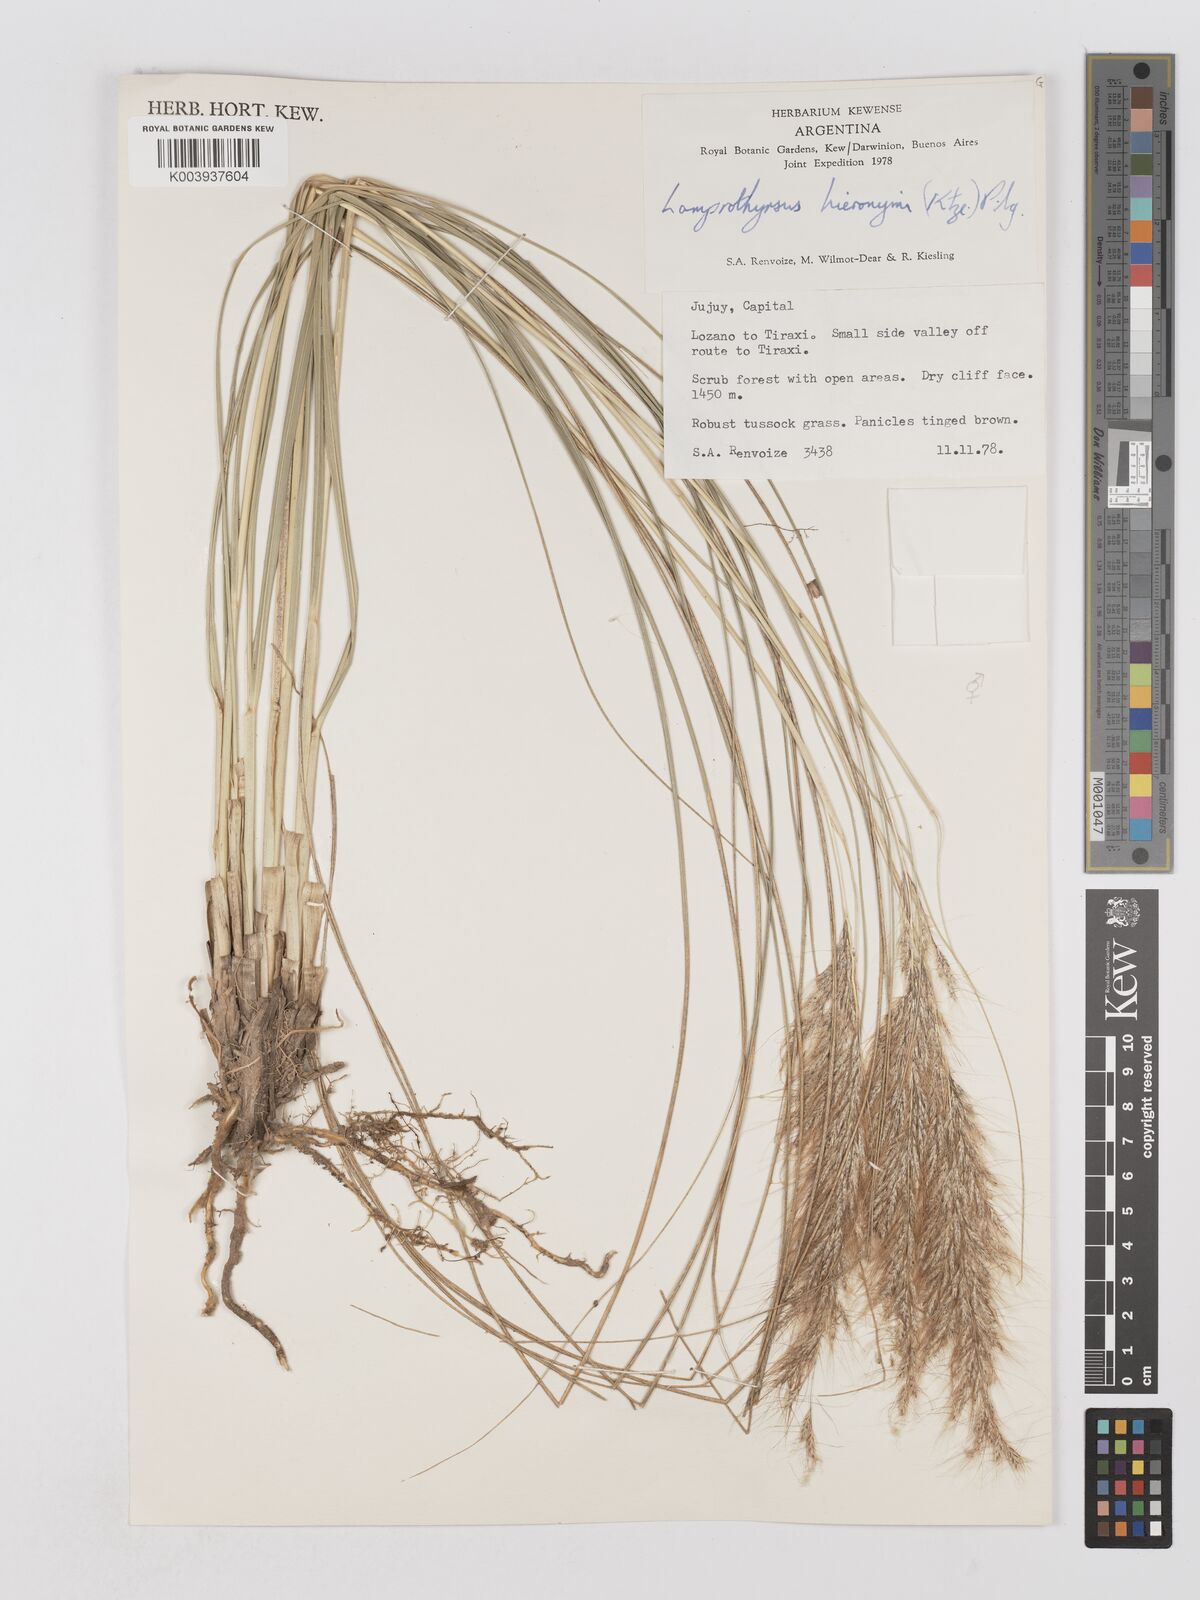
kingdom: Plantae
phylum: Tracheophyta
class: Liliopsida
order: Poales
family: Poaceae
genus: Cortaderia
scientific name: Cortaderia hieronymi
